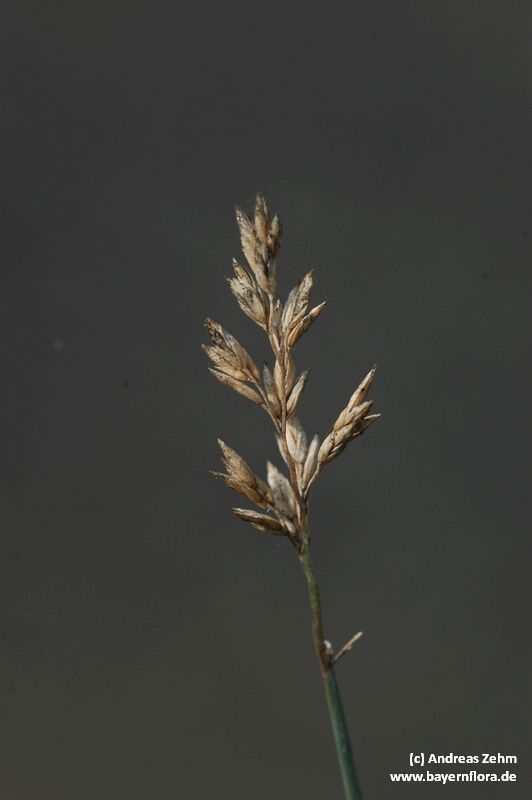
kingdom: Plantae
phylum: Tracheophyta
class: Liliopsida
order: Poales
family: Poaceae
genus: Poa
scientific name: Poa compressa
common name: Canada bluegrass
